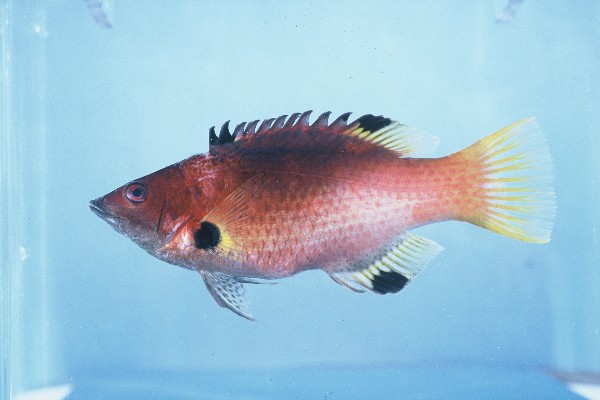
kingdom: Animalia
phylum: Chordata
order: Perciformes
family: Labridae
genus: Bodianus
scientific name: Bodianus axillaris
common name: Axilspot hogfish
